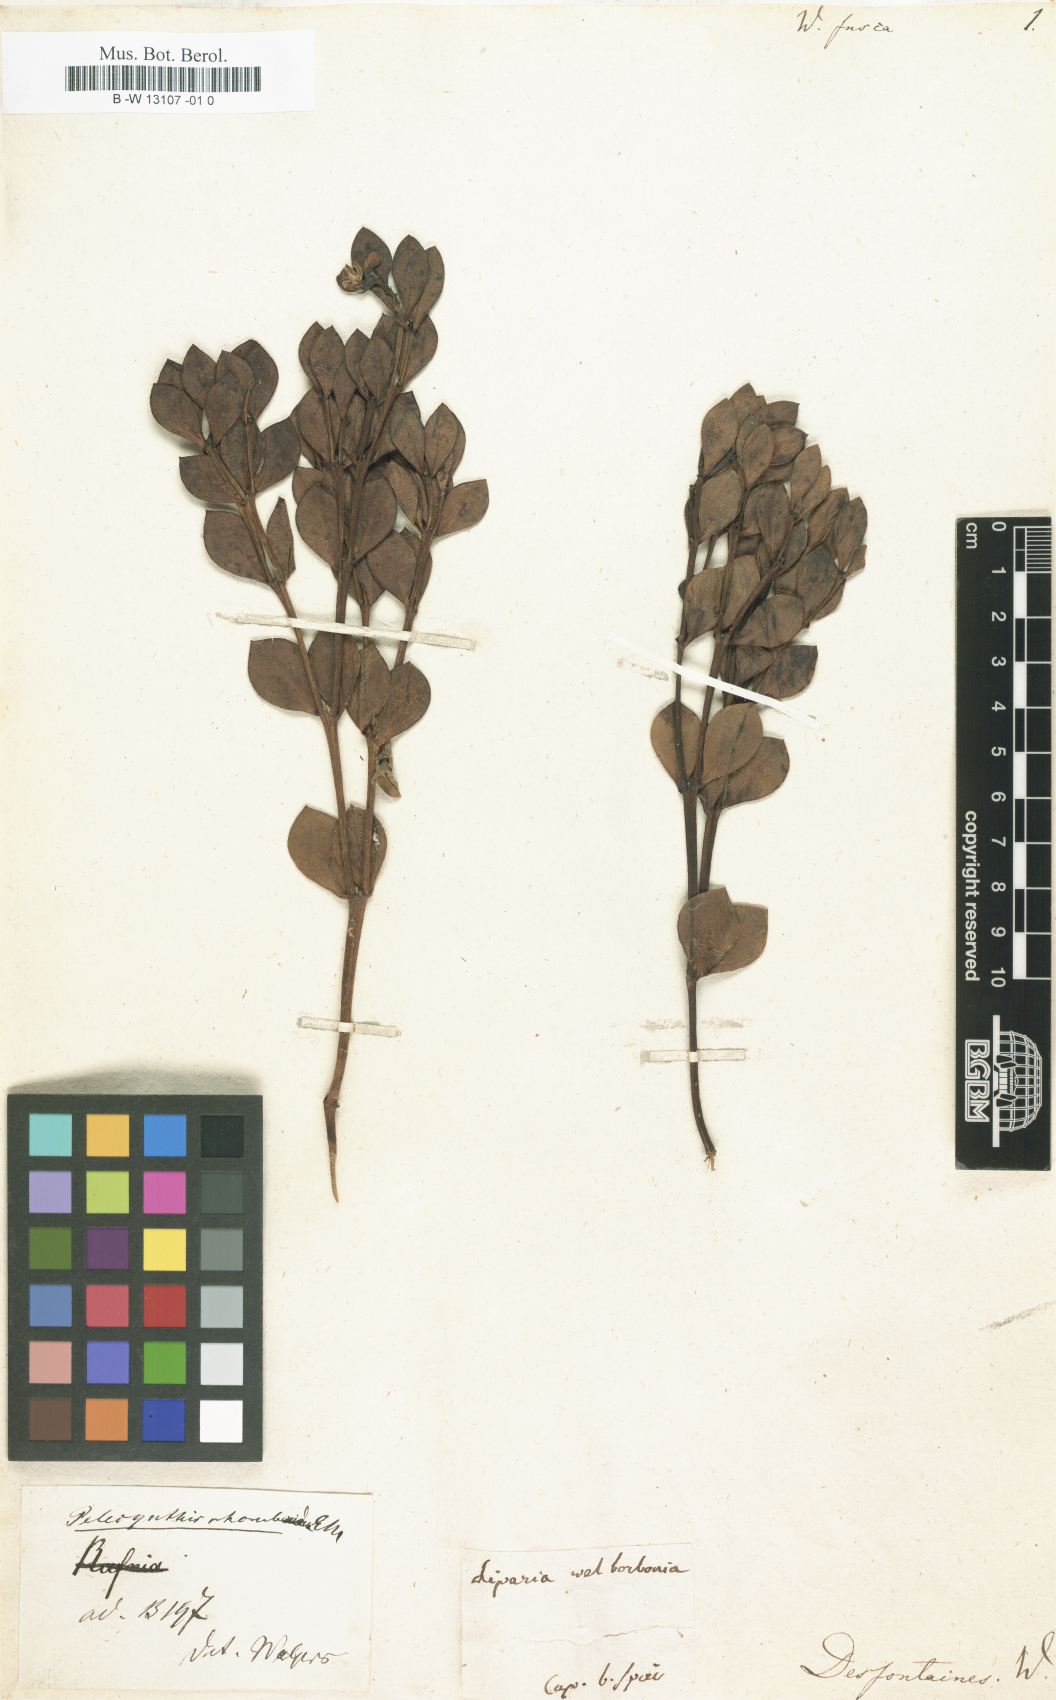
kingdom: Plantae
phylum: Tracheophyta
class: Magnoliopsida
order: Fabales
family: Fabaceae
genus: Wiborgia
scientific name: Wiborgia fusca
